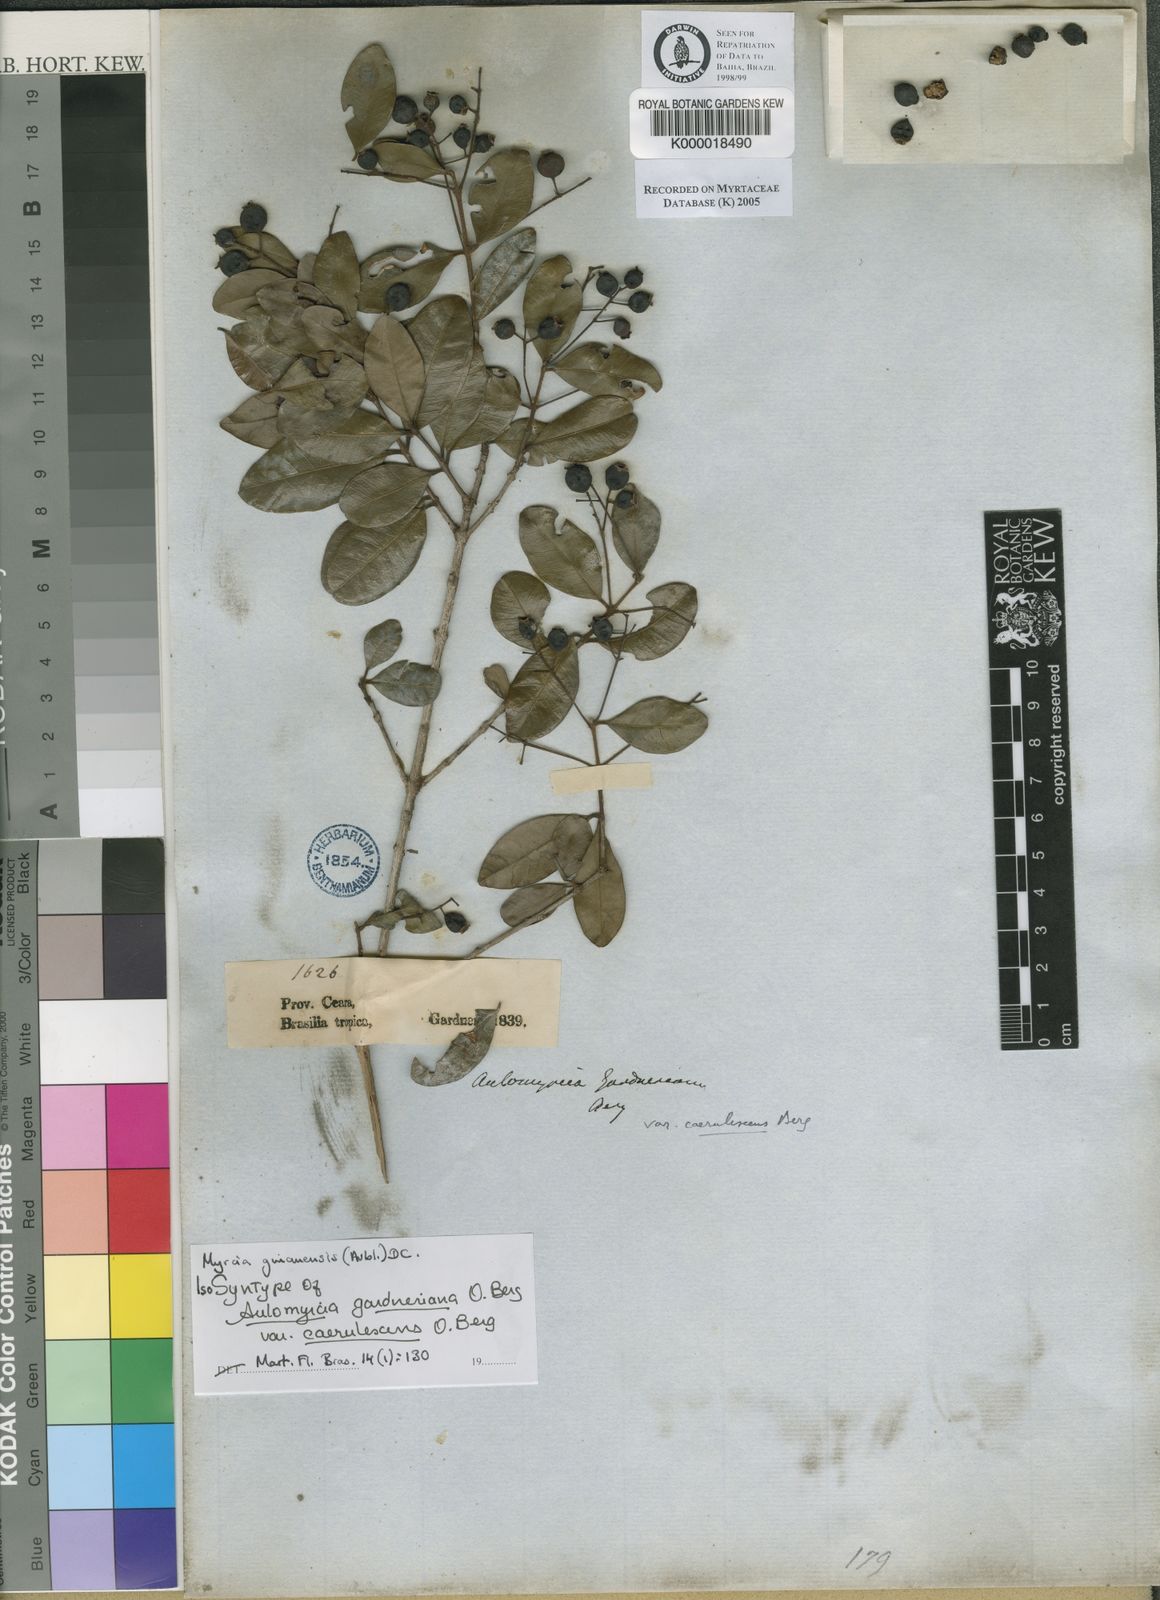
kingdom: Plantae
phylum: Tracheophyta
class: Magnoliopsida
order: Myrtales
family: Myrtaceae
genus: Myrcia
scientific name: Myrcia guianensis
